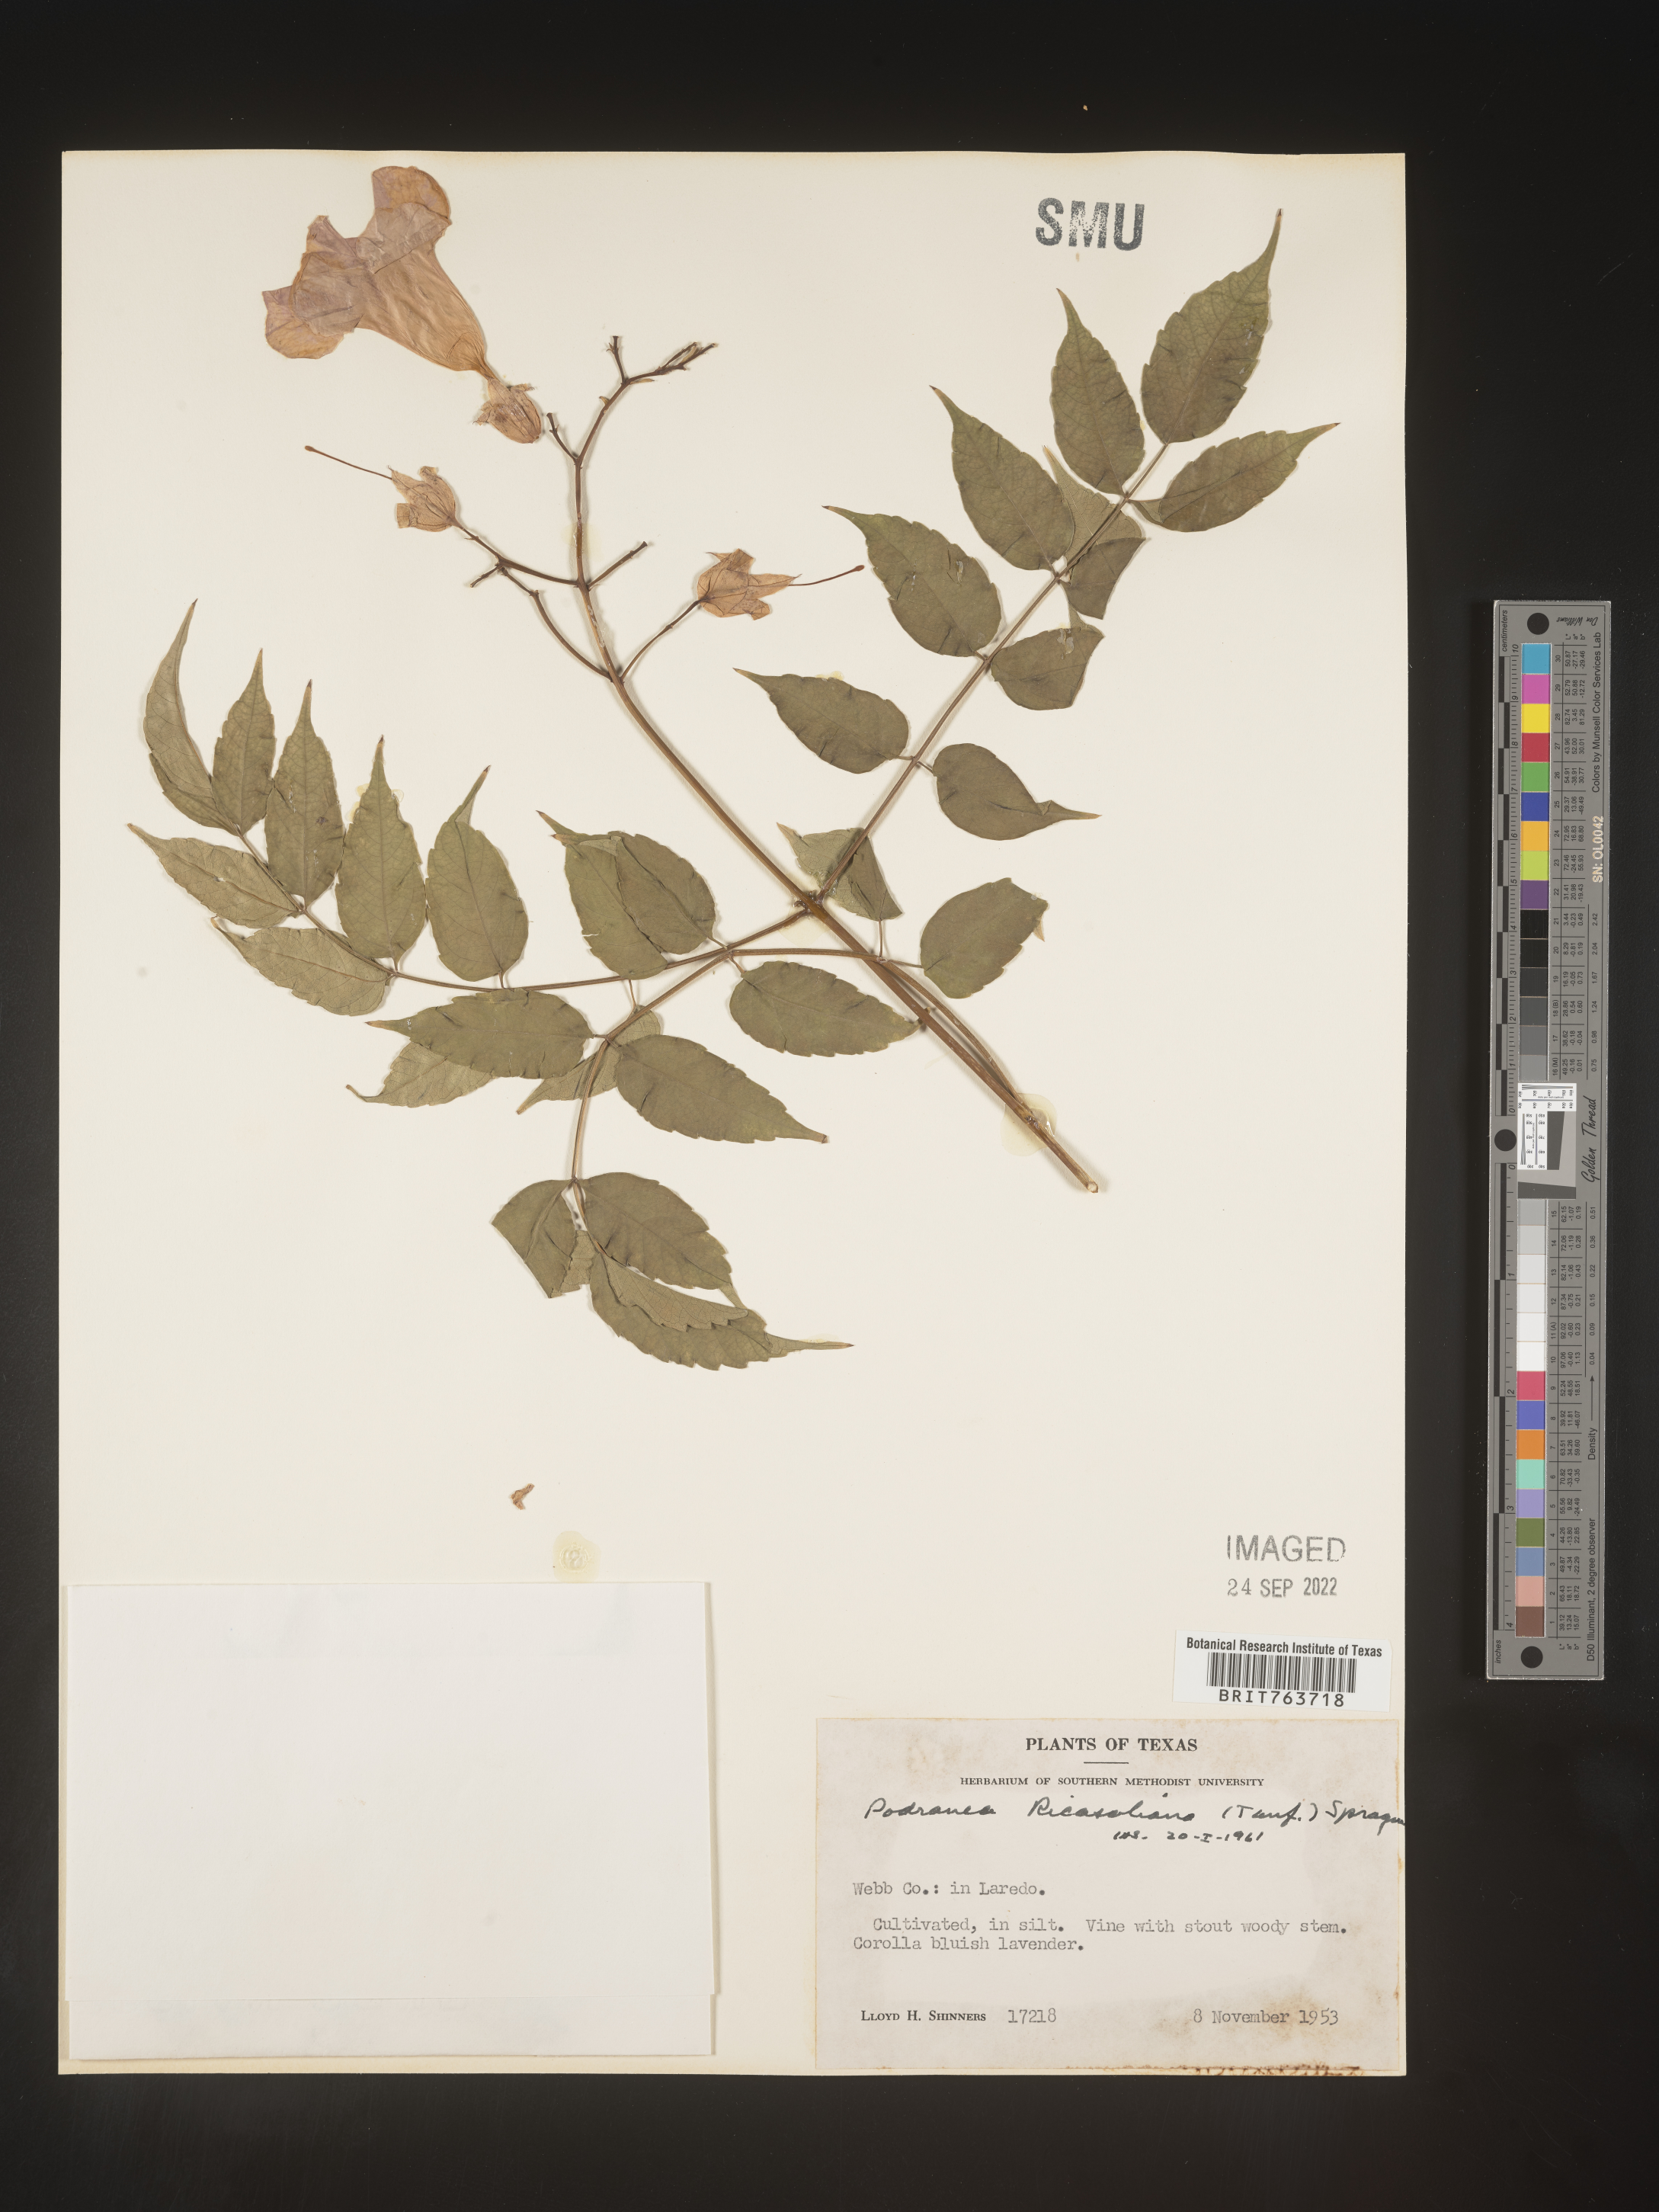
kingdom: Plantae
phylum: Tracheophyta
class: Magnoliopsida
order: Lamiales
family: Bignoniaceae
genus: Podranea
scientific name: Podranea
